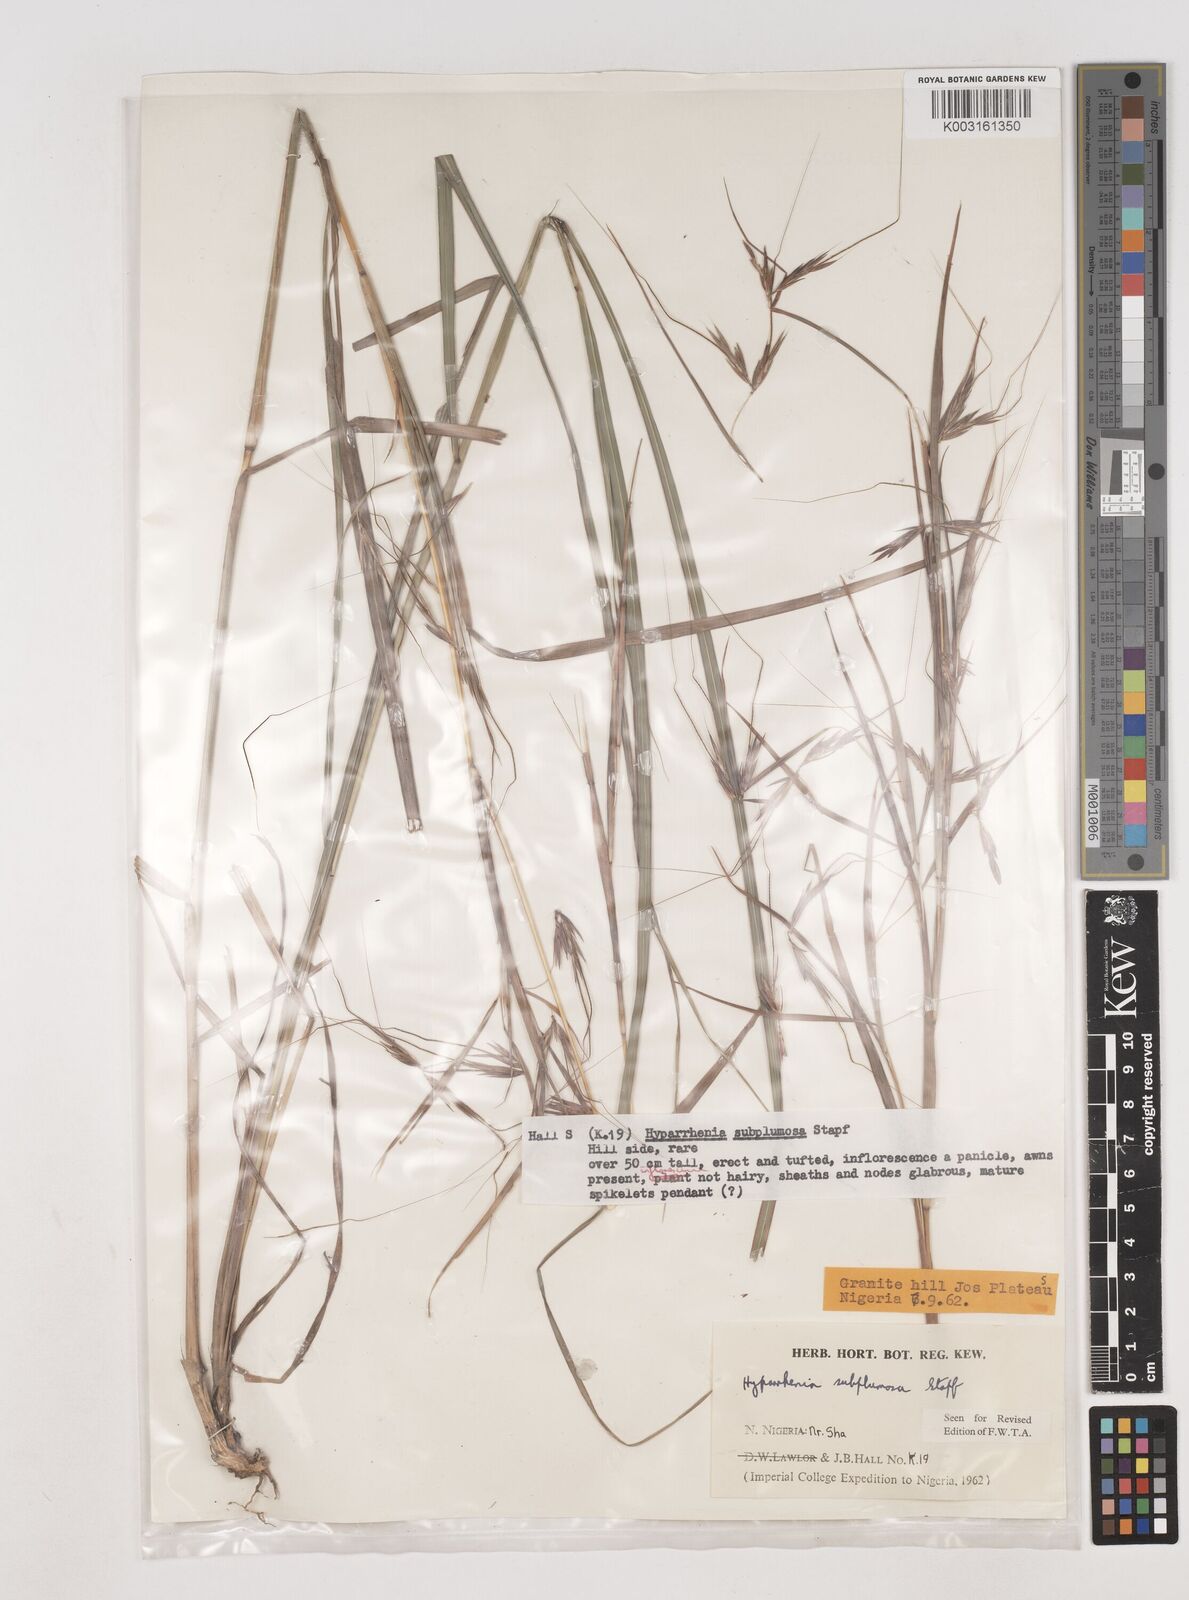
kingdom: Plantae
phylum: Tracheophyta
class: Liliopsida
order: Poales
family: Poaceae
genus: Hyparrhenia
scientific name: Hyparrhenia subplumosa
